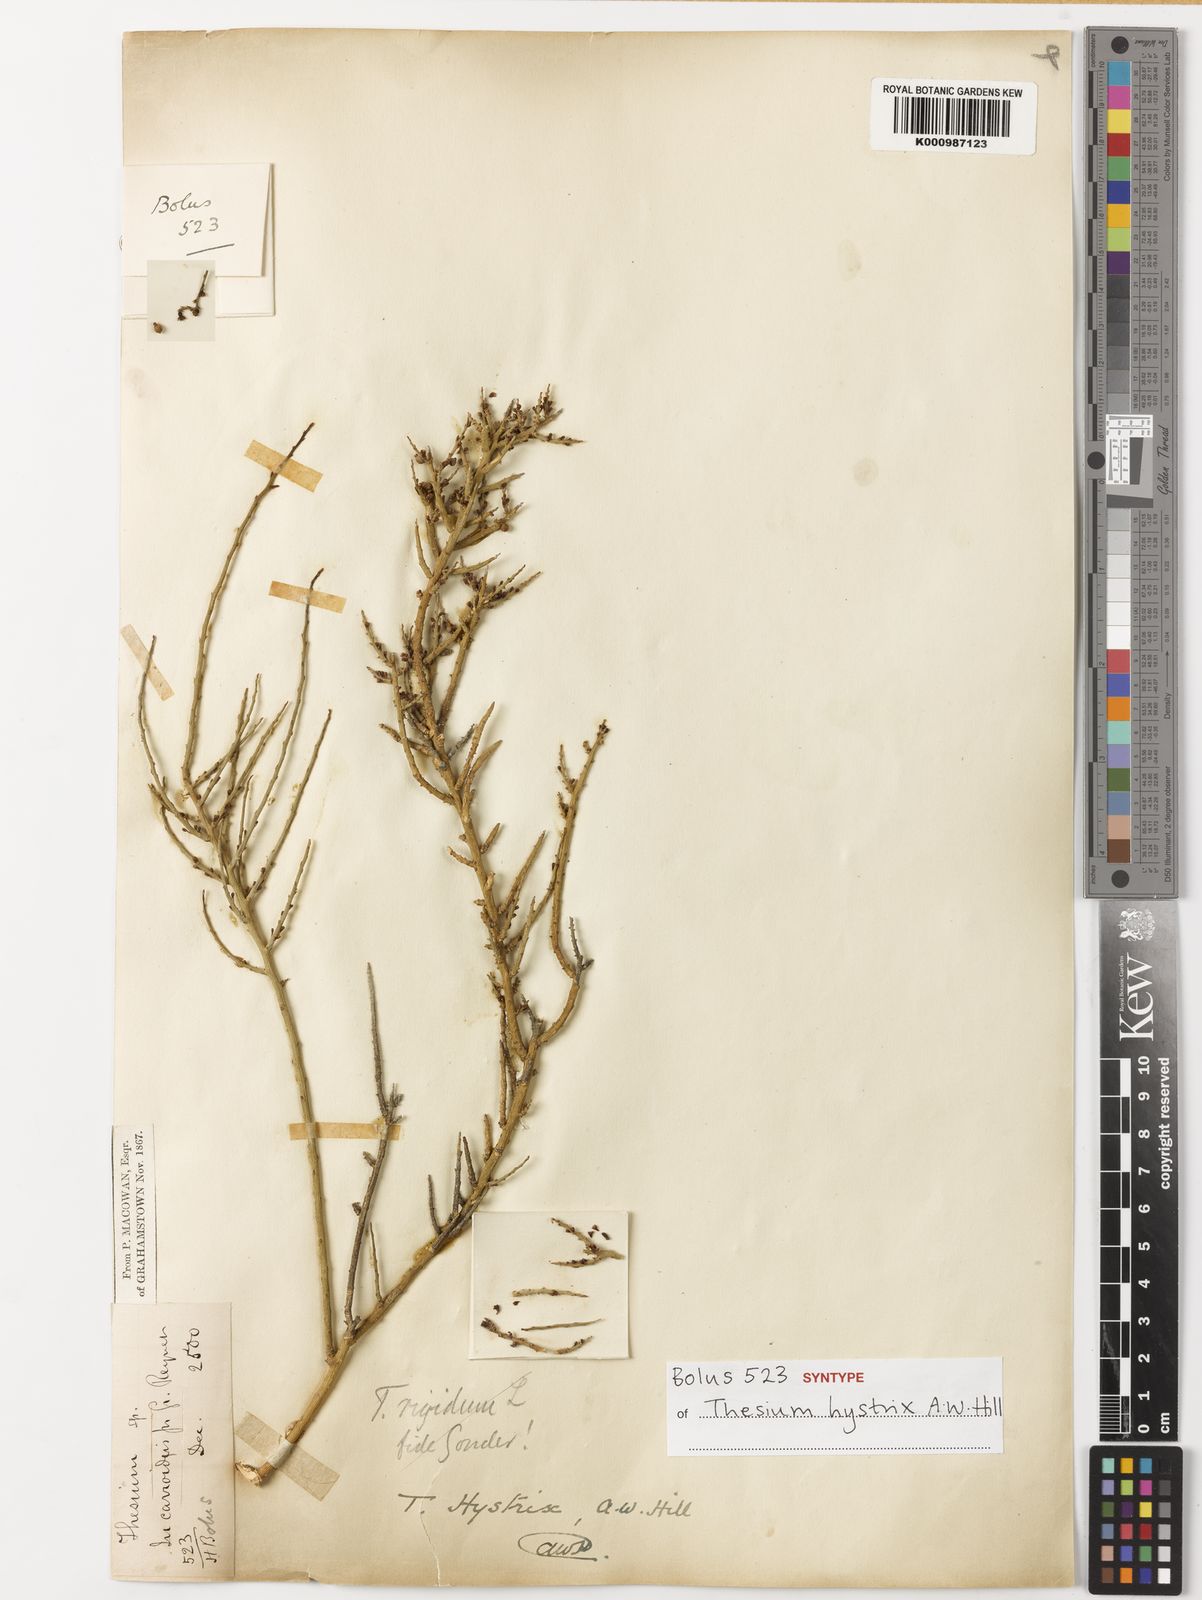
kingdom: Plantae
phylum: Tracheophyta
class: Magnoliopsida
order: Santalales
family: Thesiaceae
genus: Thesium
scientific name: Thesium hystrix
